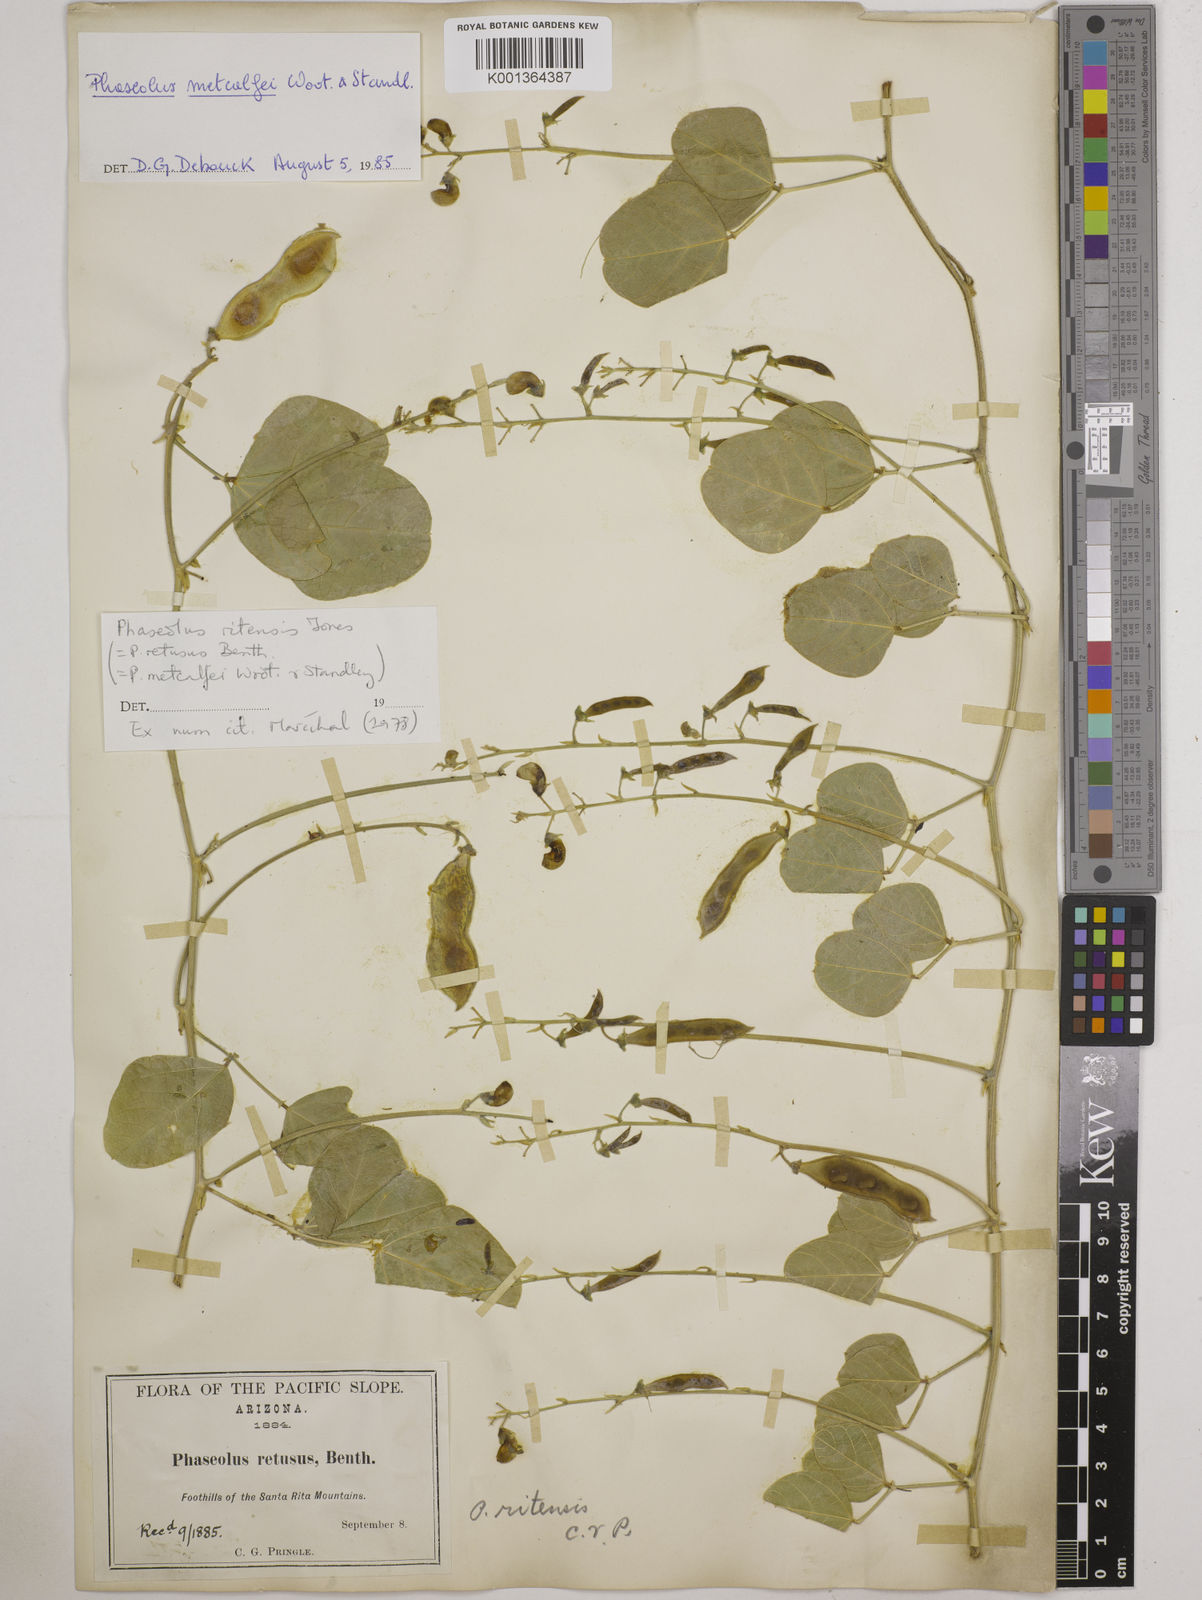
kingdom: Plantae
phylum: Tracheophyta
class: Magnoliopsida
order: Fabales
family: Fabaceae
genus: Phaseolus
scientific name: Phaseolus maculatus
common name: Metcalfe bean
